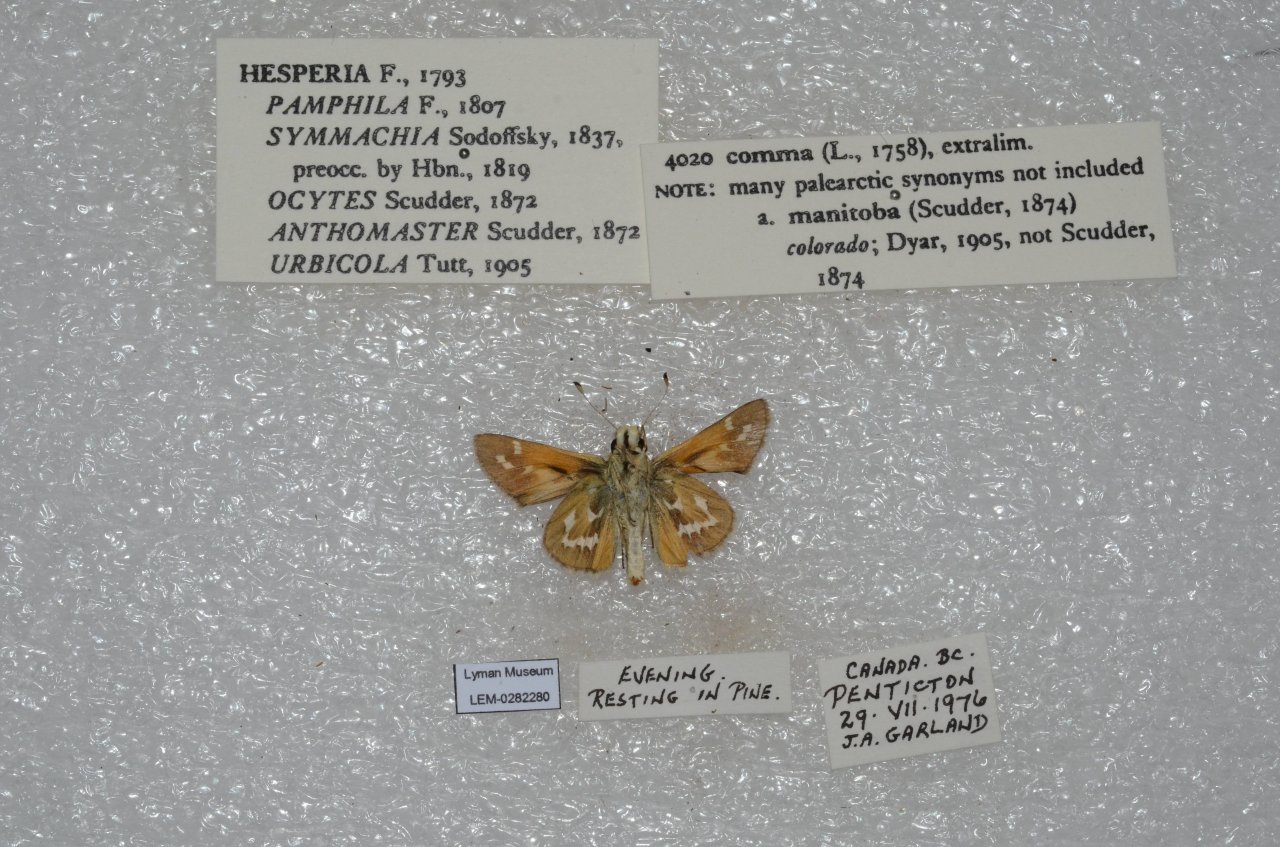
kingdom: Animalia
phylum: Arthropoda
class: Insecta
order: Lepidoptera
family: Hesperiidae
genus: Hesperia
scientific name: Hesperia comma
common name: Common Branded Skipper
